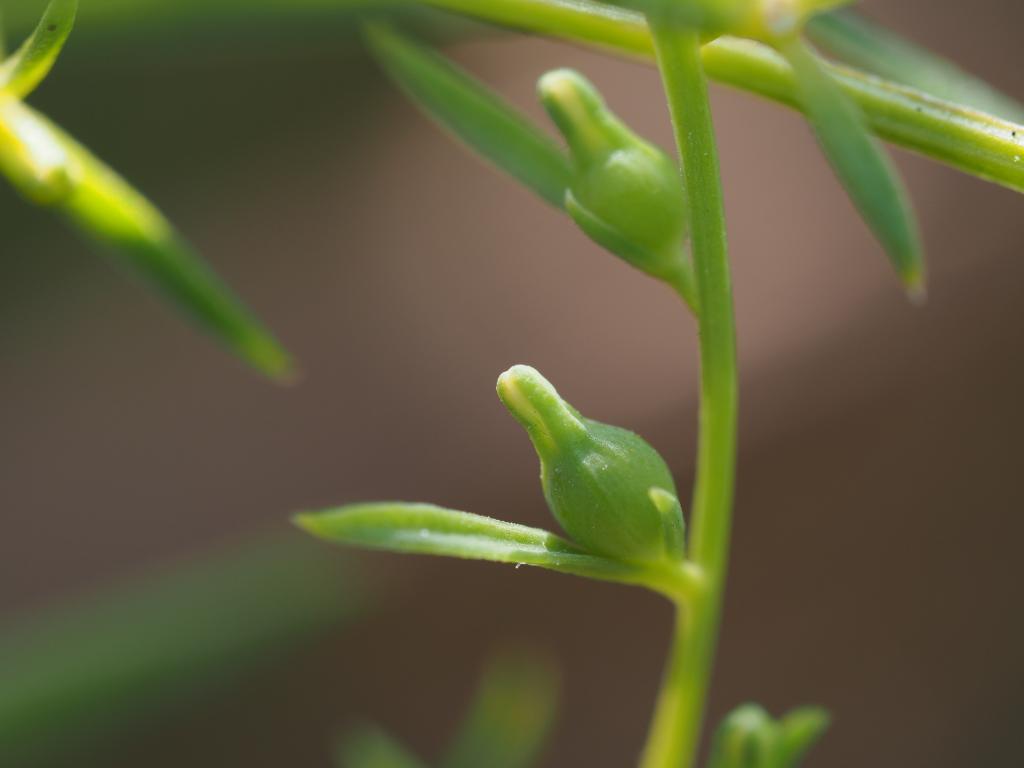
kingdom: Plantae
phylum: Tracheophyta
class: Magnoliopsida
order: Santalales
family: Thesiaceae
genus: Thesium
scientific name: Thesium chinense
